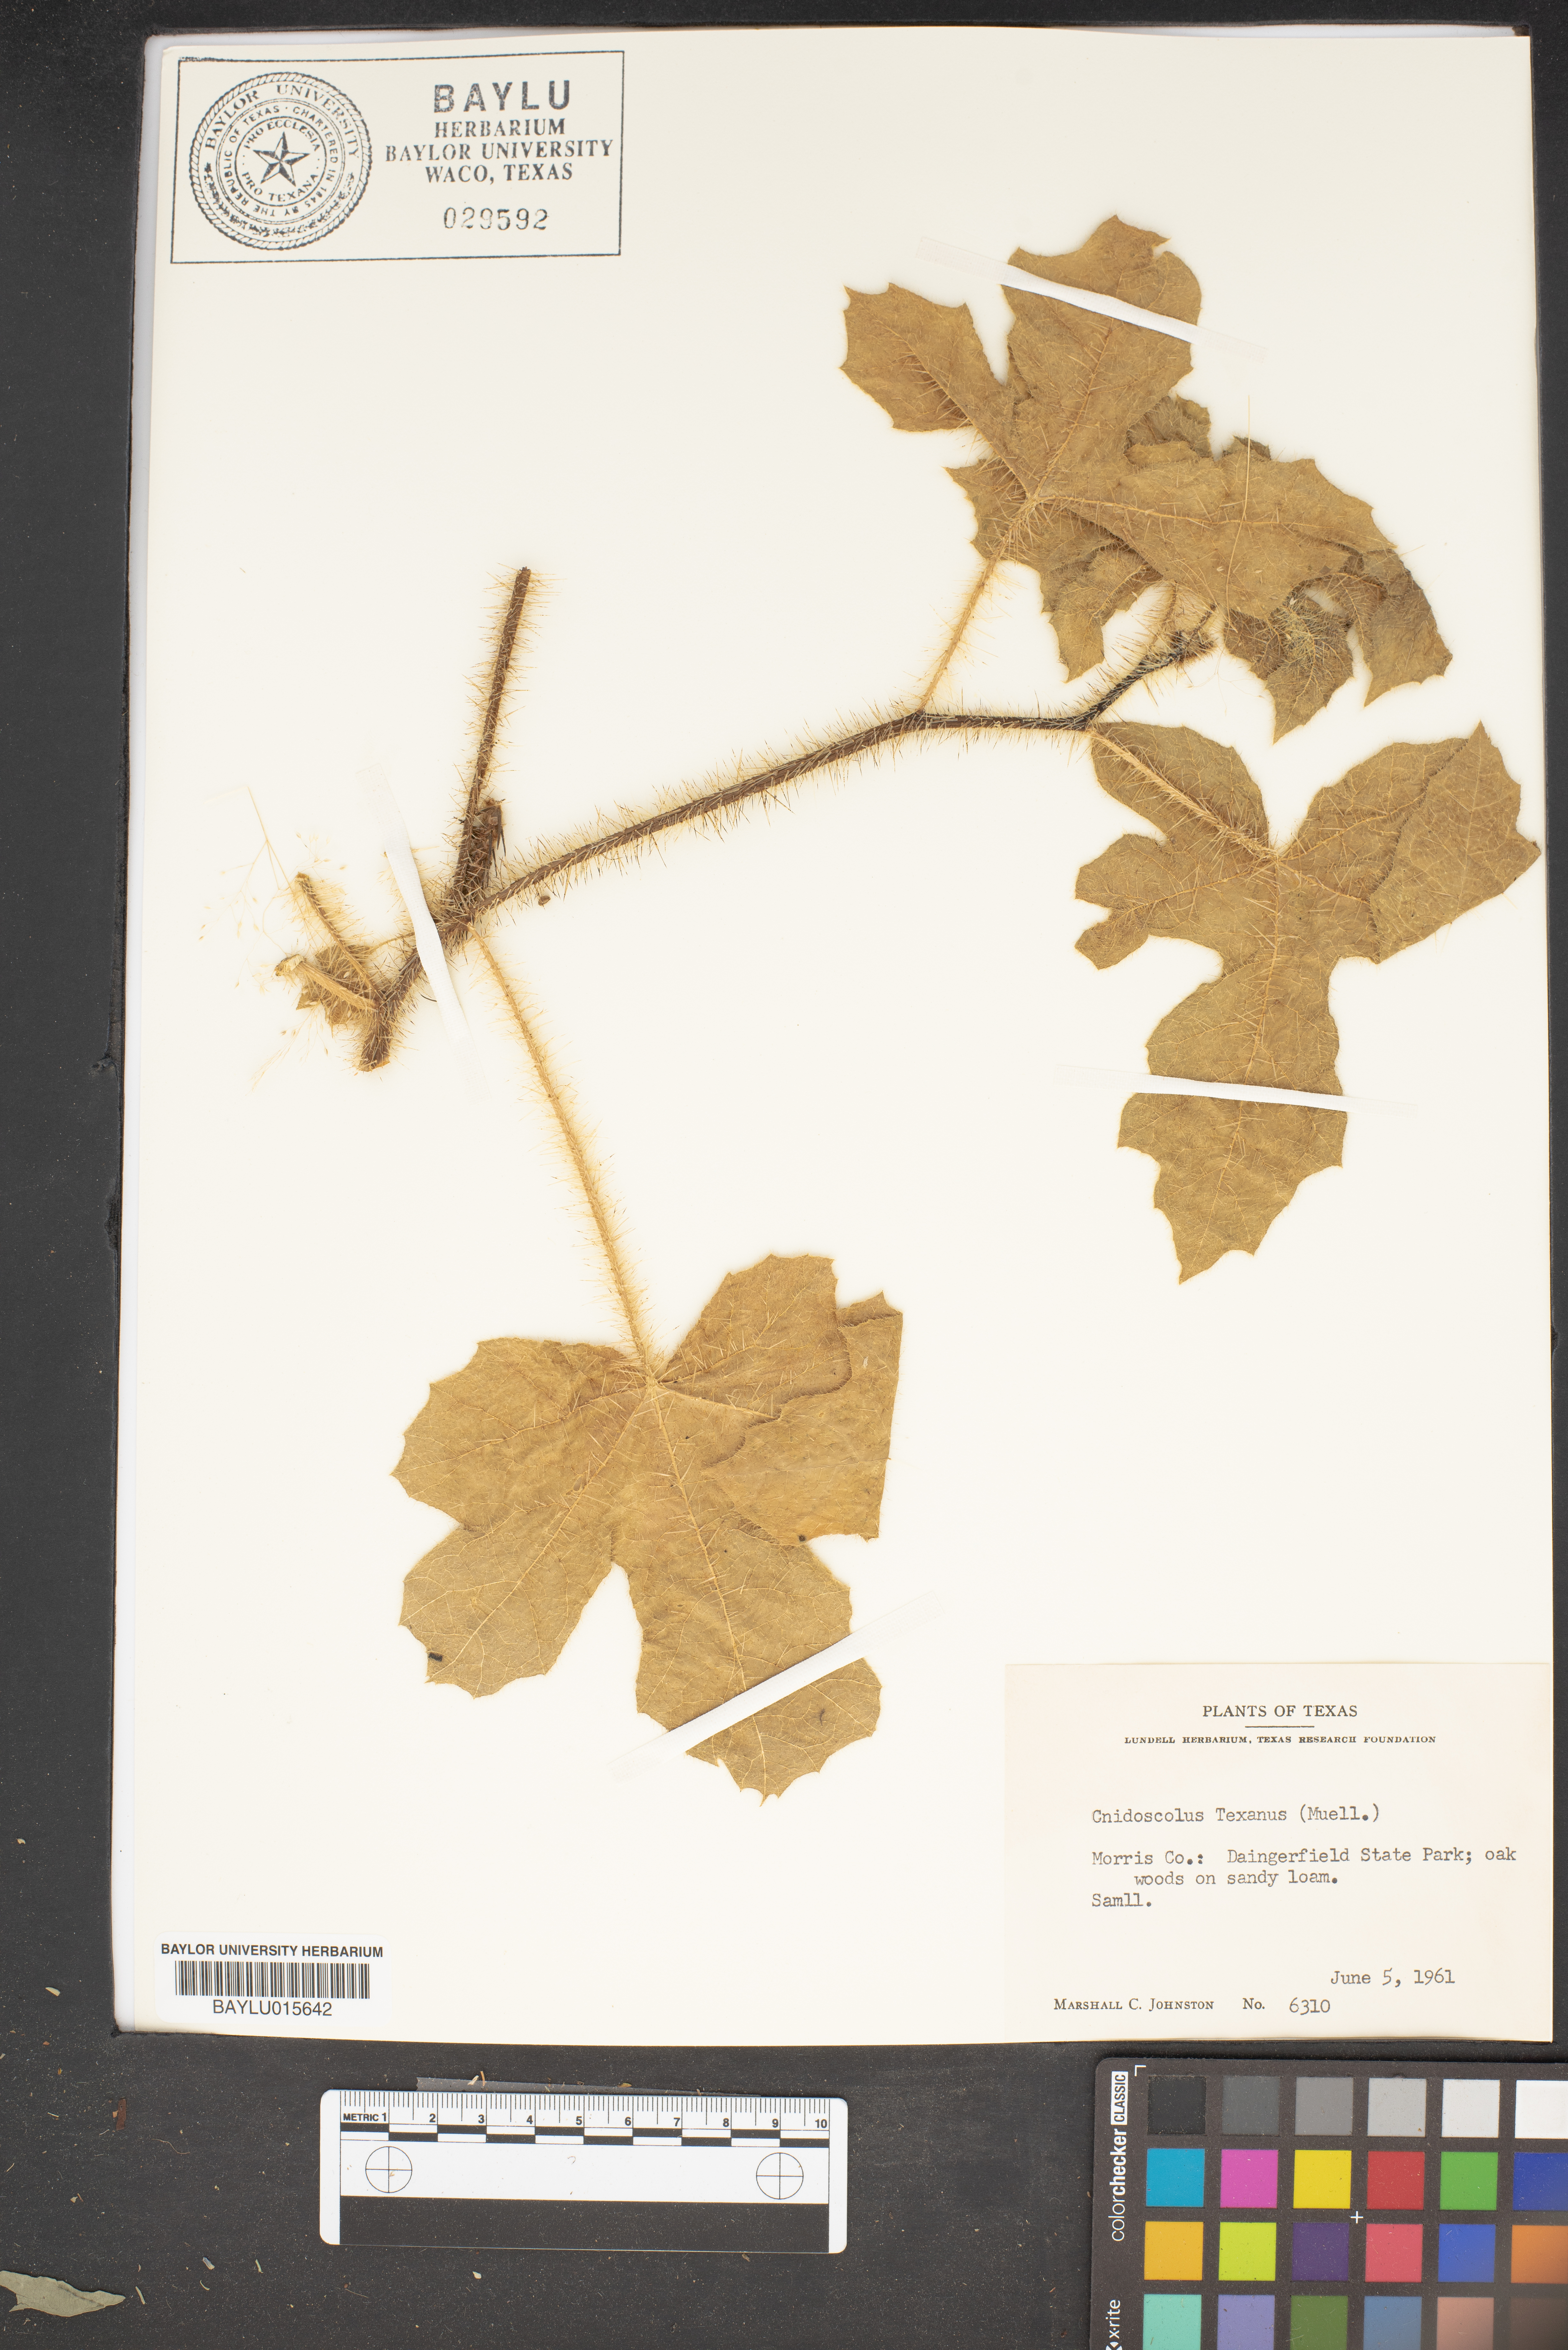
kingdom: Plantae
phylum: Tracheophyta
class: Magnoliopsida
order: Malpighiales
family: Euphorbiaceae
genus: Cnidoscolus
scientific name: Cnidoscolus texanus
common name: Texas bull-nettle
